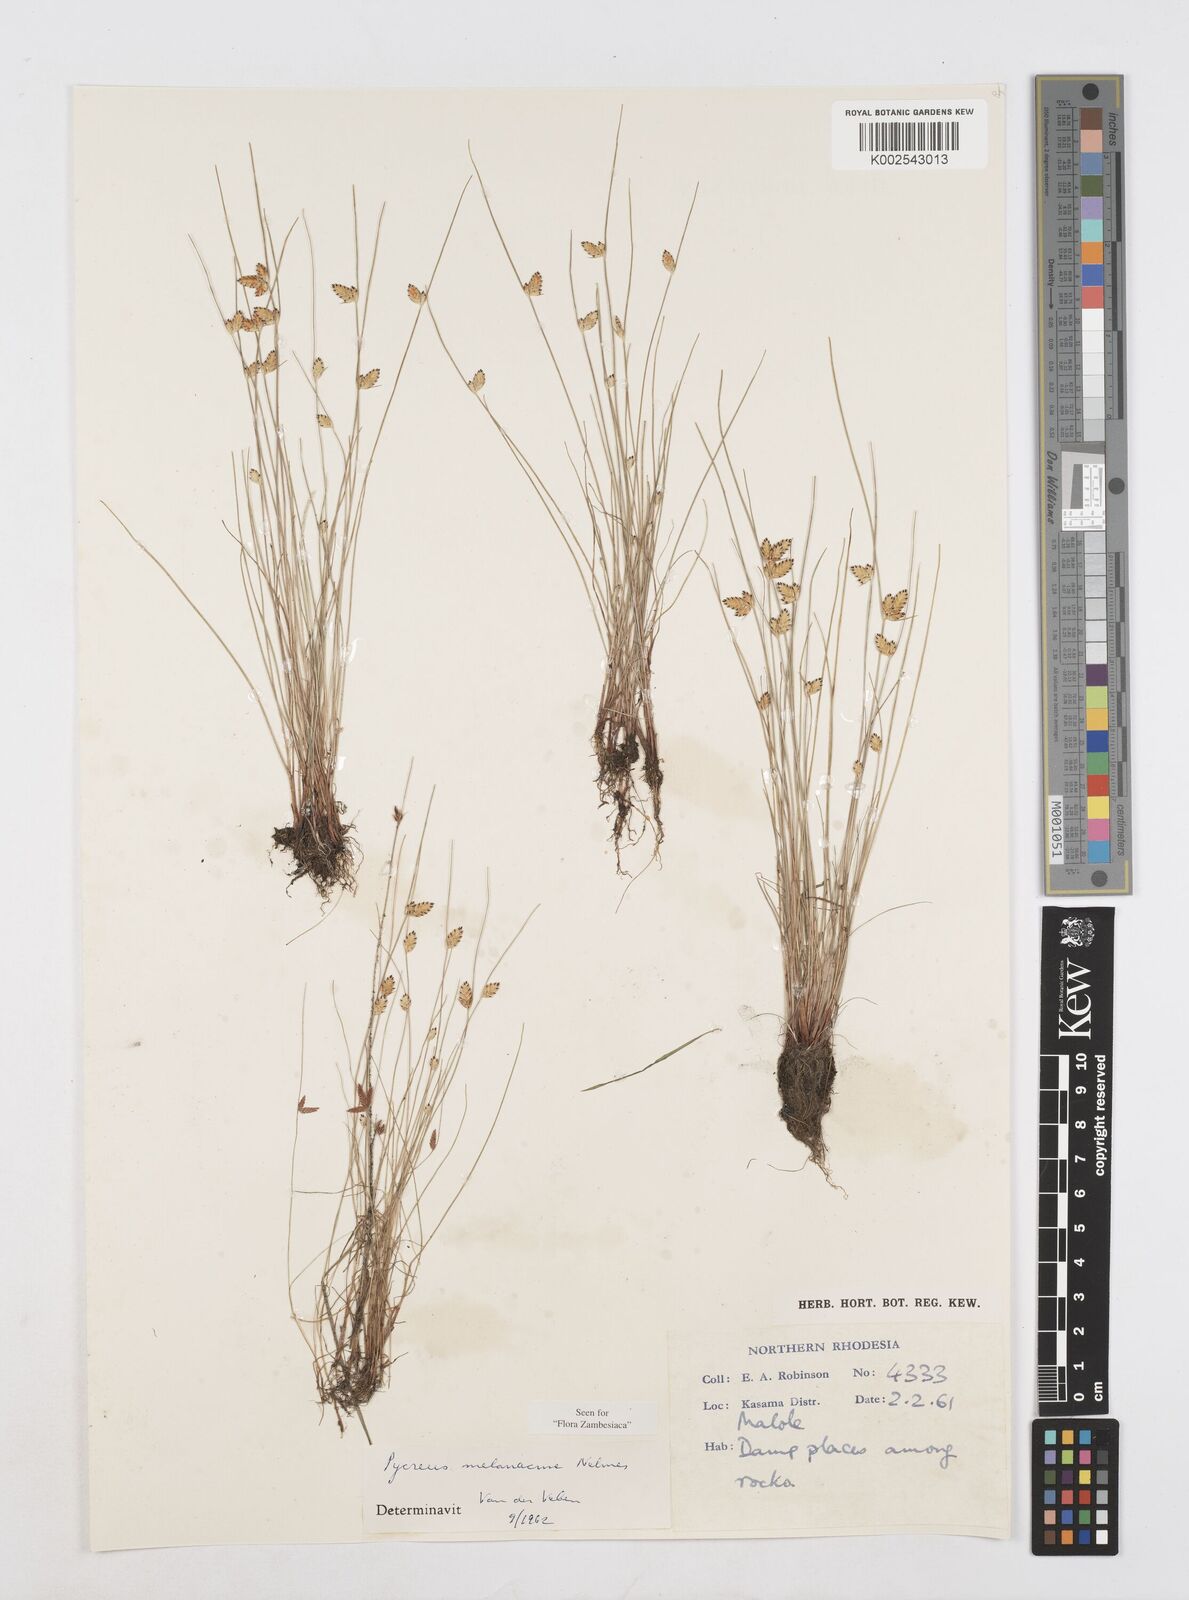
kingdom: Plantae
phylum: Tracheophyta
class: Liliopsida
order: Poales
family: Cyperaceae
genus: Cyperus
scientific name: Cyperus melanacme
